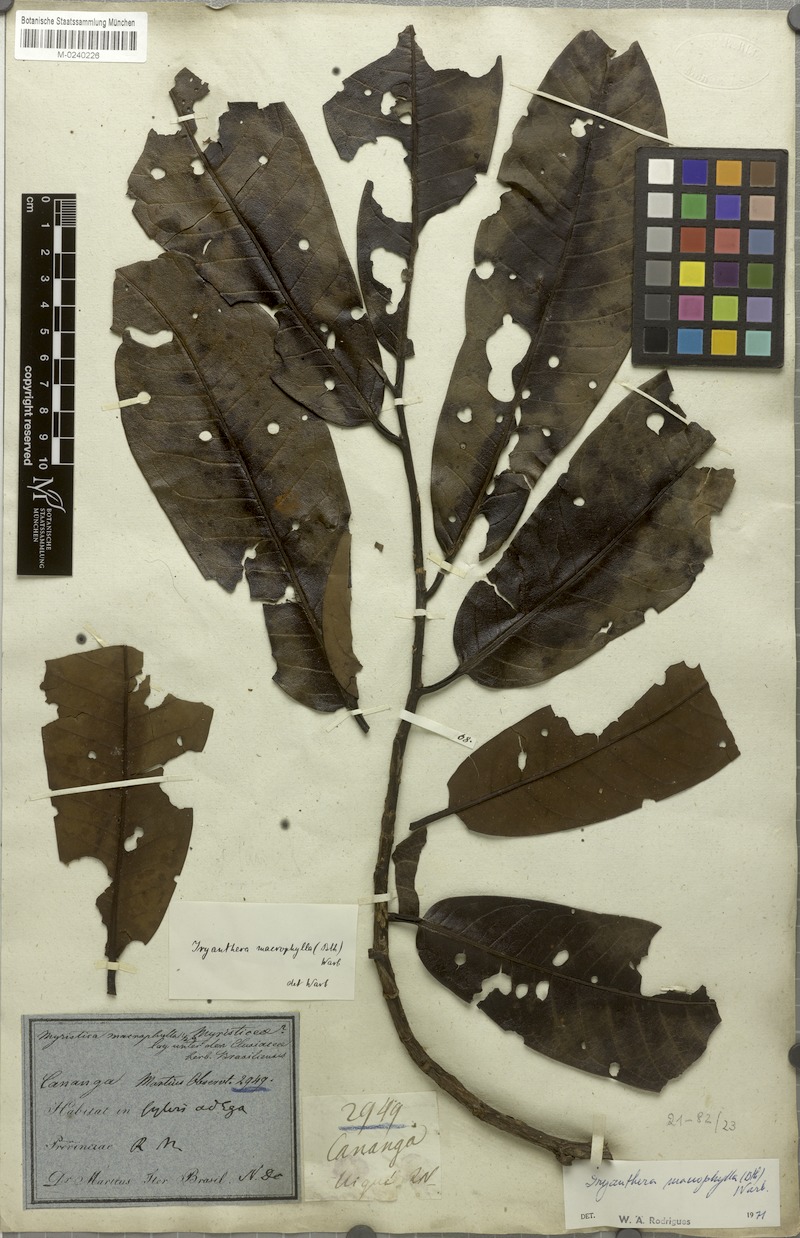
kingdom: Plantae
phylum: Tracheophyta
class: Magnoliopsida
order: Magnoliales
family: Myristicaceae
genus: Iryanthera
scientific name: Iryanthera macrophylla
